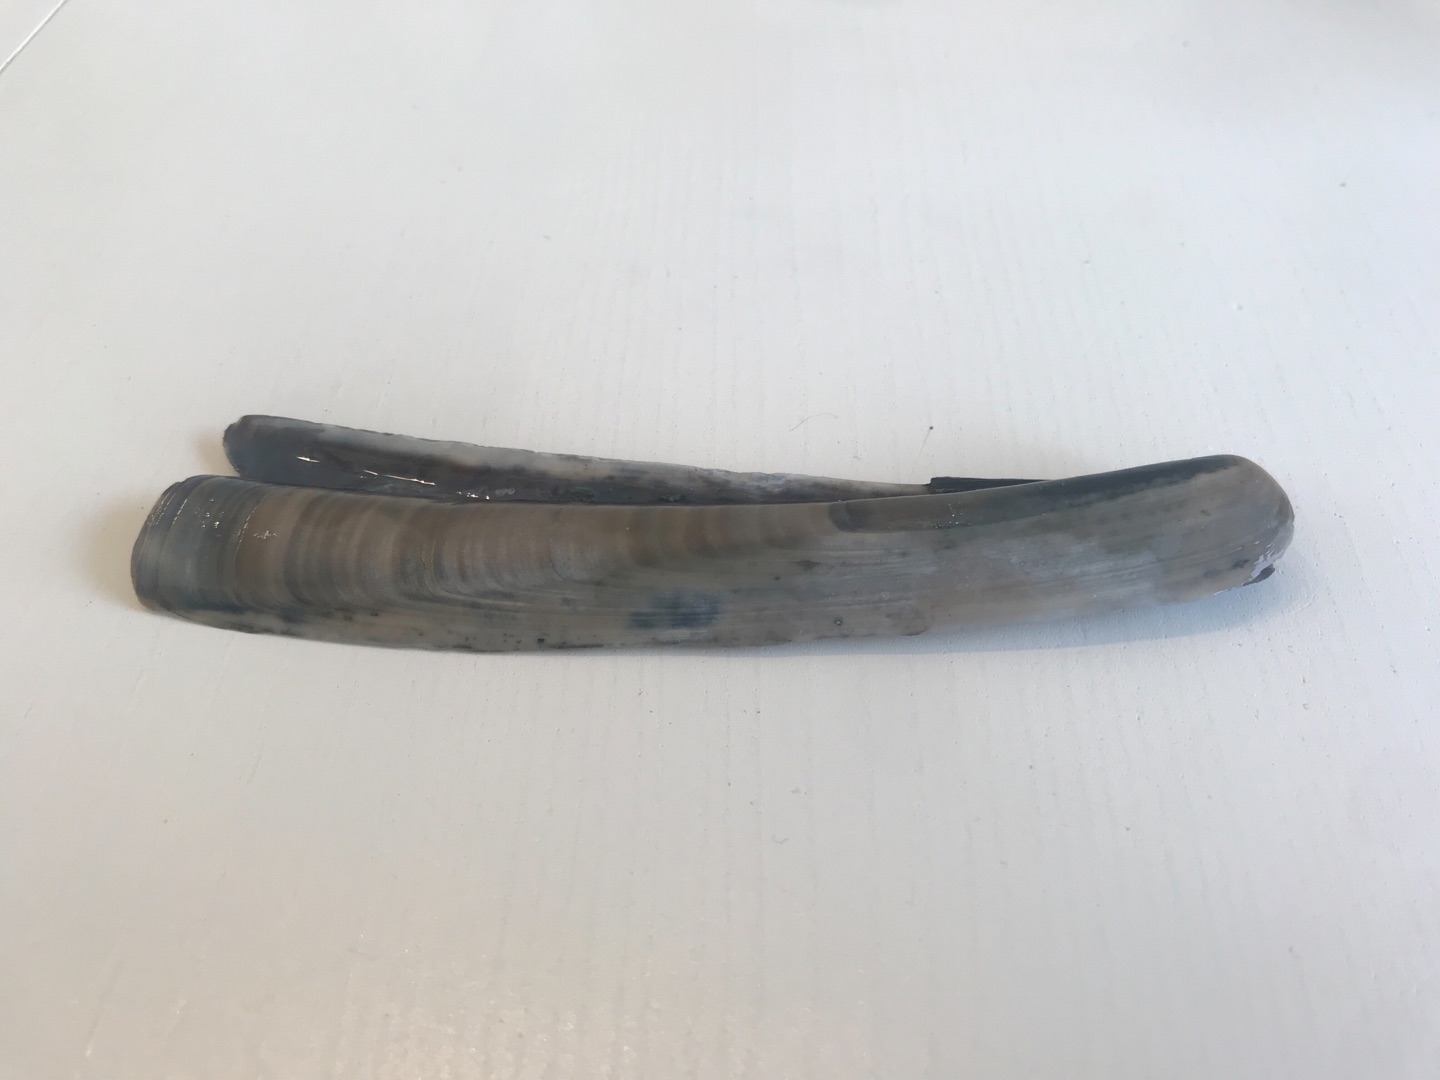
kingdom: Animalia
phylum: Mollusca
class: Bivalvia
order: Adapedonta
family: Pharidae
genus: Ensis
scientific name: Ensis leei
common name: Amerikansk knivmusling
